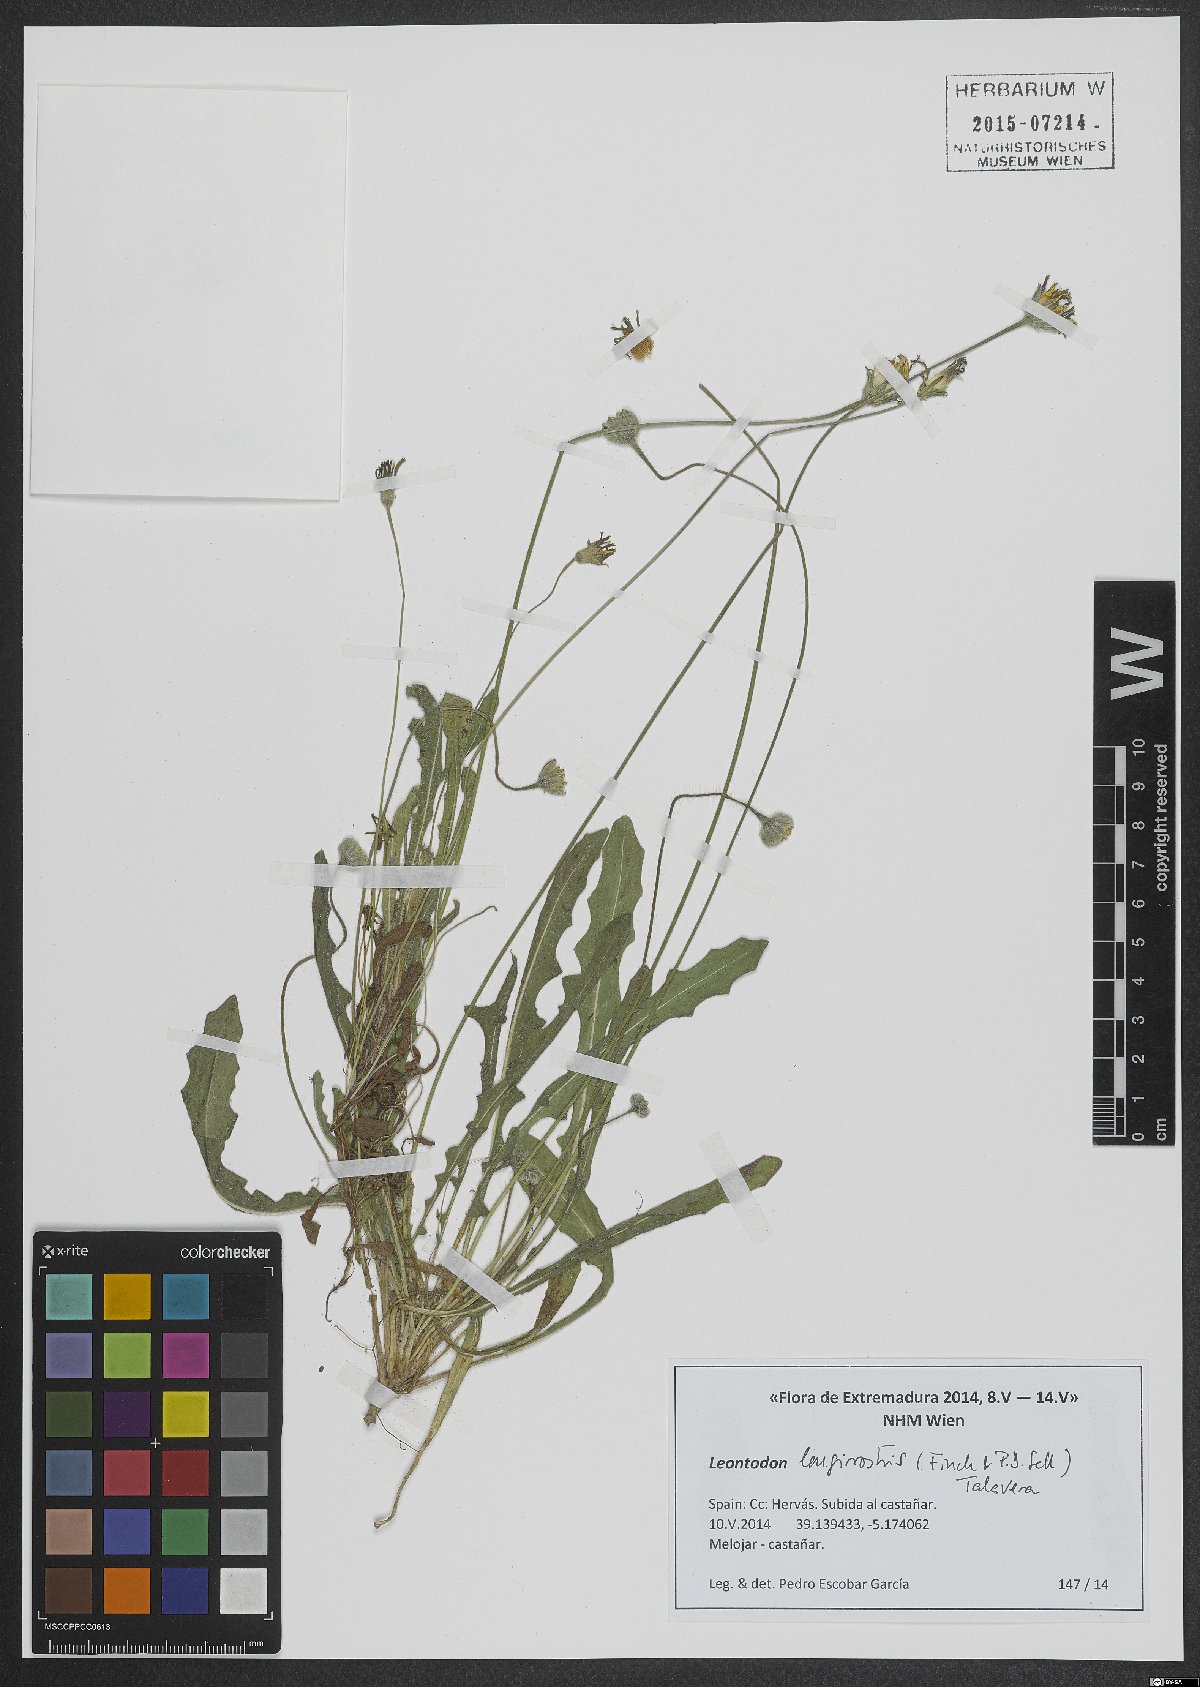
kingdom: Plantae
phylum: Tracheophyta
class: Magnoliopsida
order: Asterales
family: Asteraceae
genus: Thrincia
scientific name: Thrincia hispida
